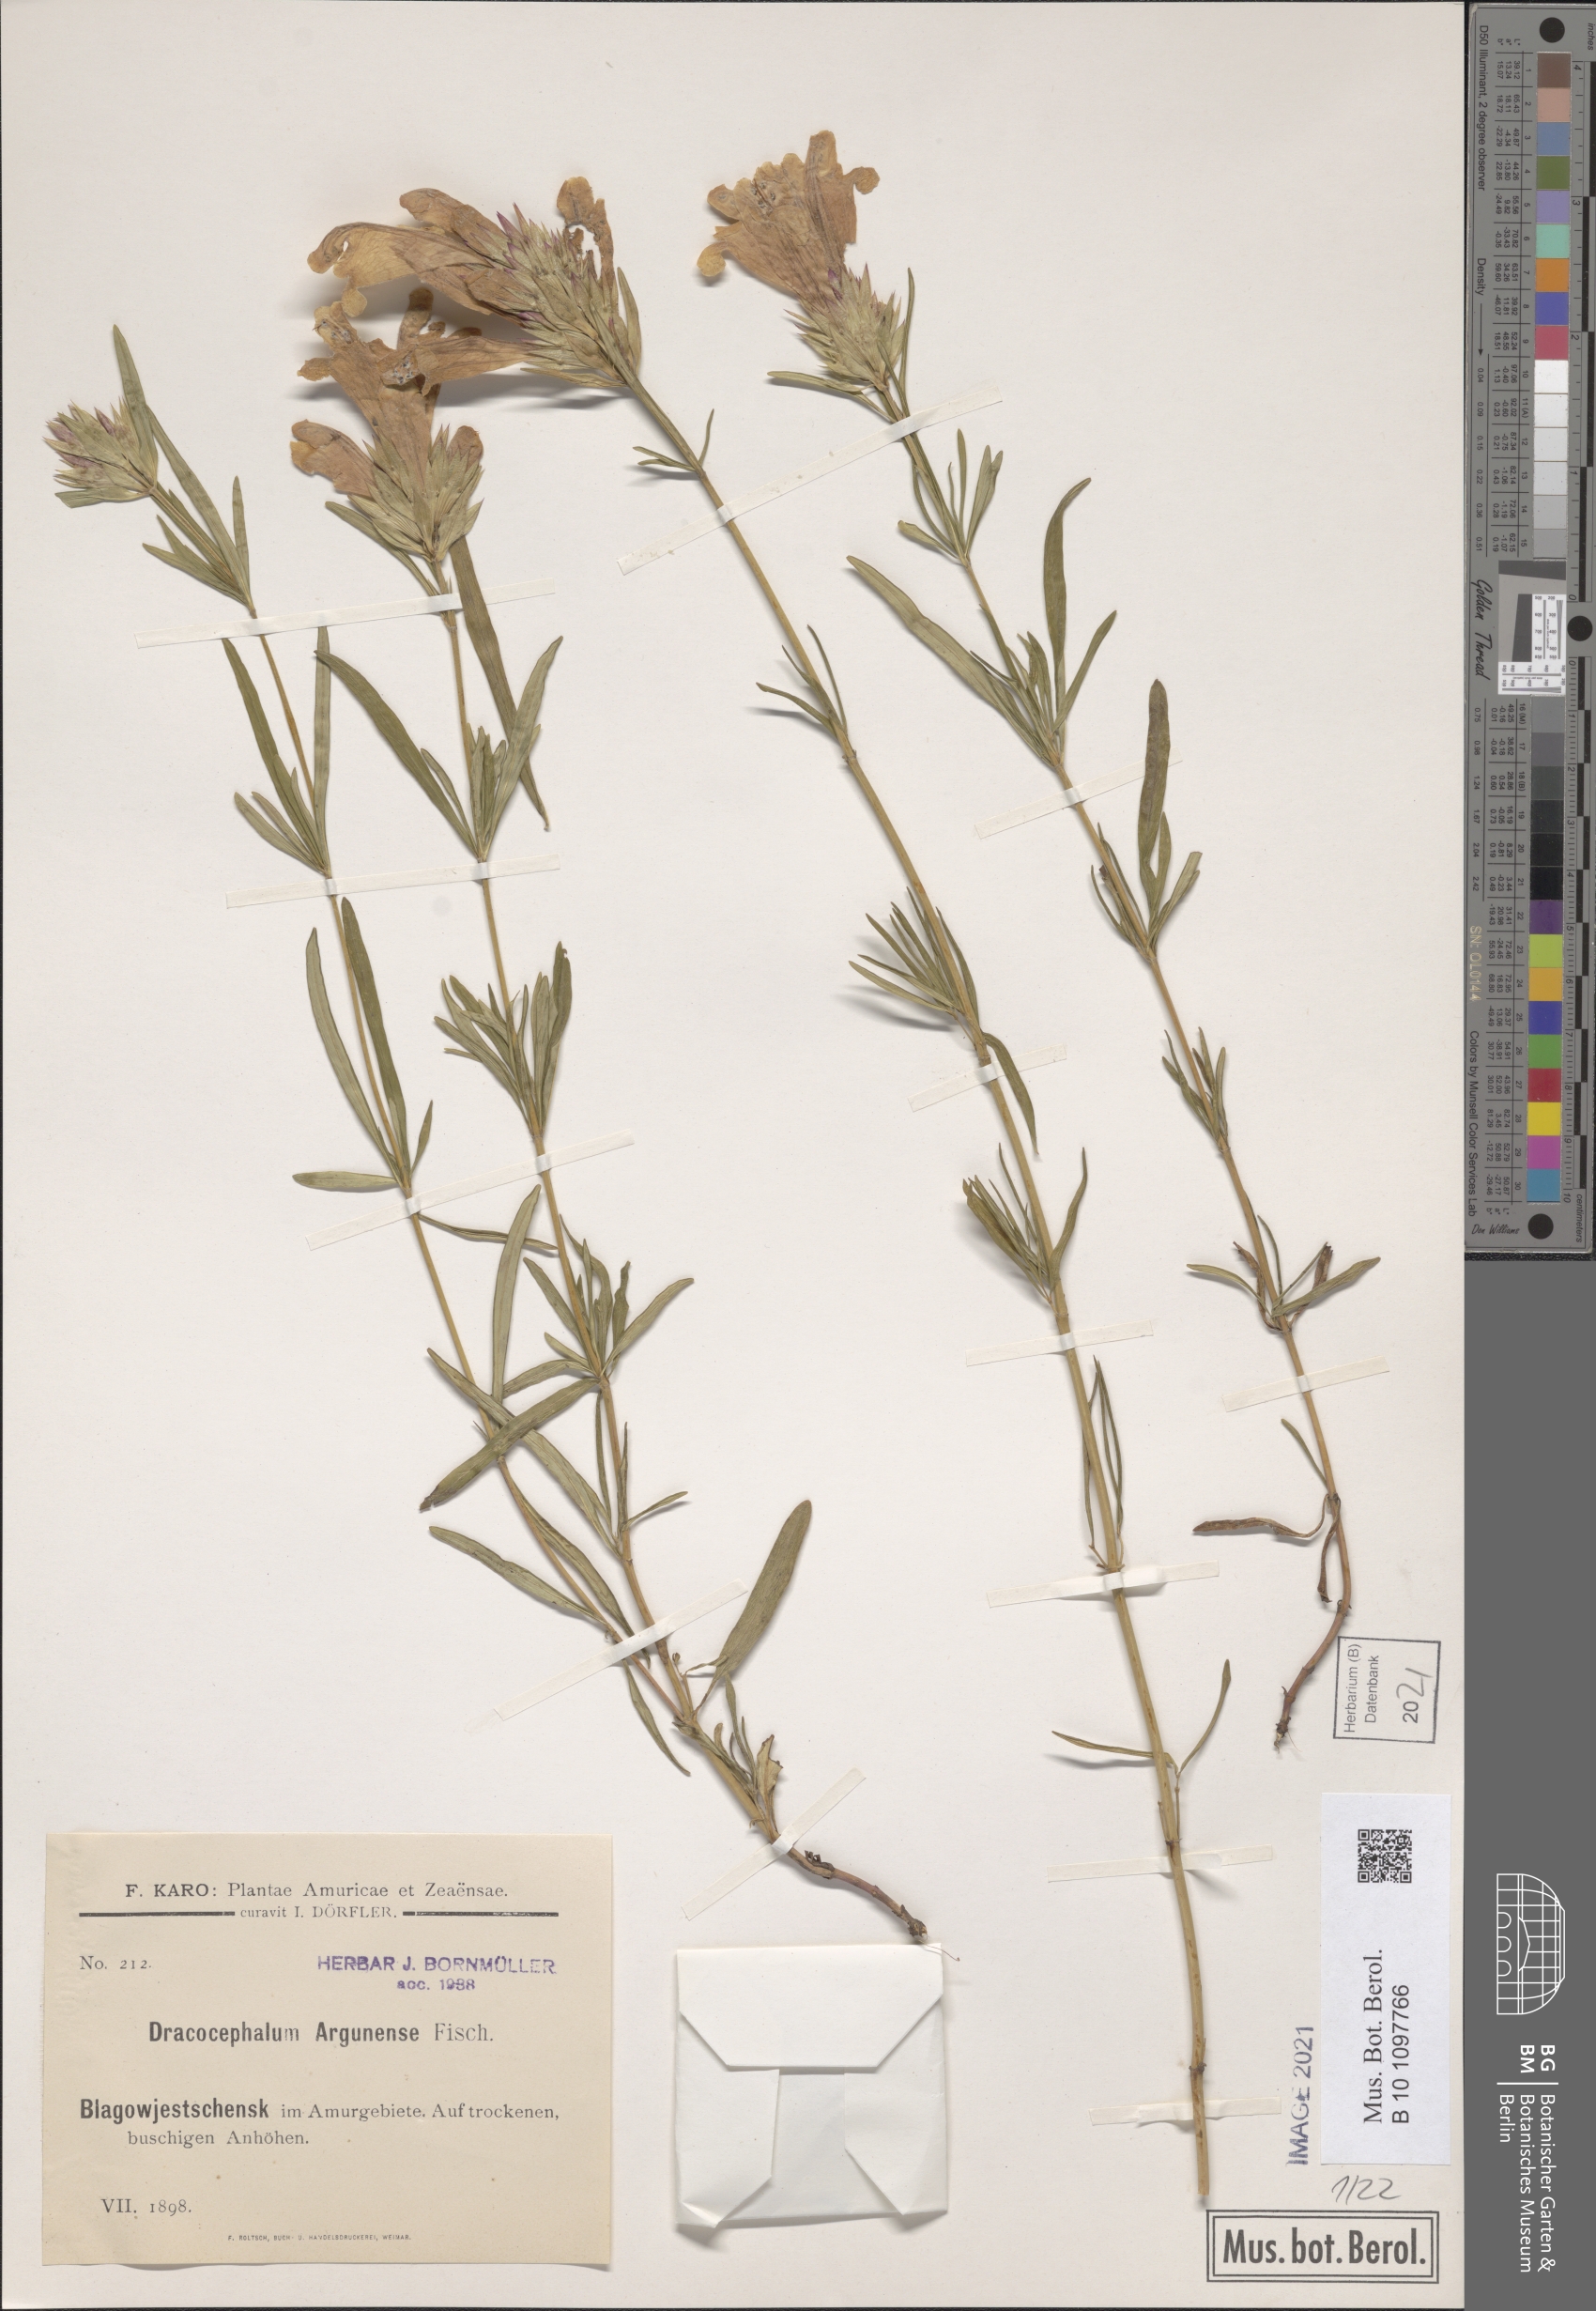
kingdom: Plantae
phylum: Tracheophyta
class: Magnoliopsida
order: Lamiales
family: Lamiaceae
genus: Dracocephalum
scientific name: Dracocephalum argunense
